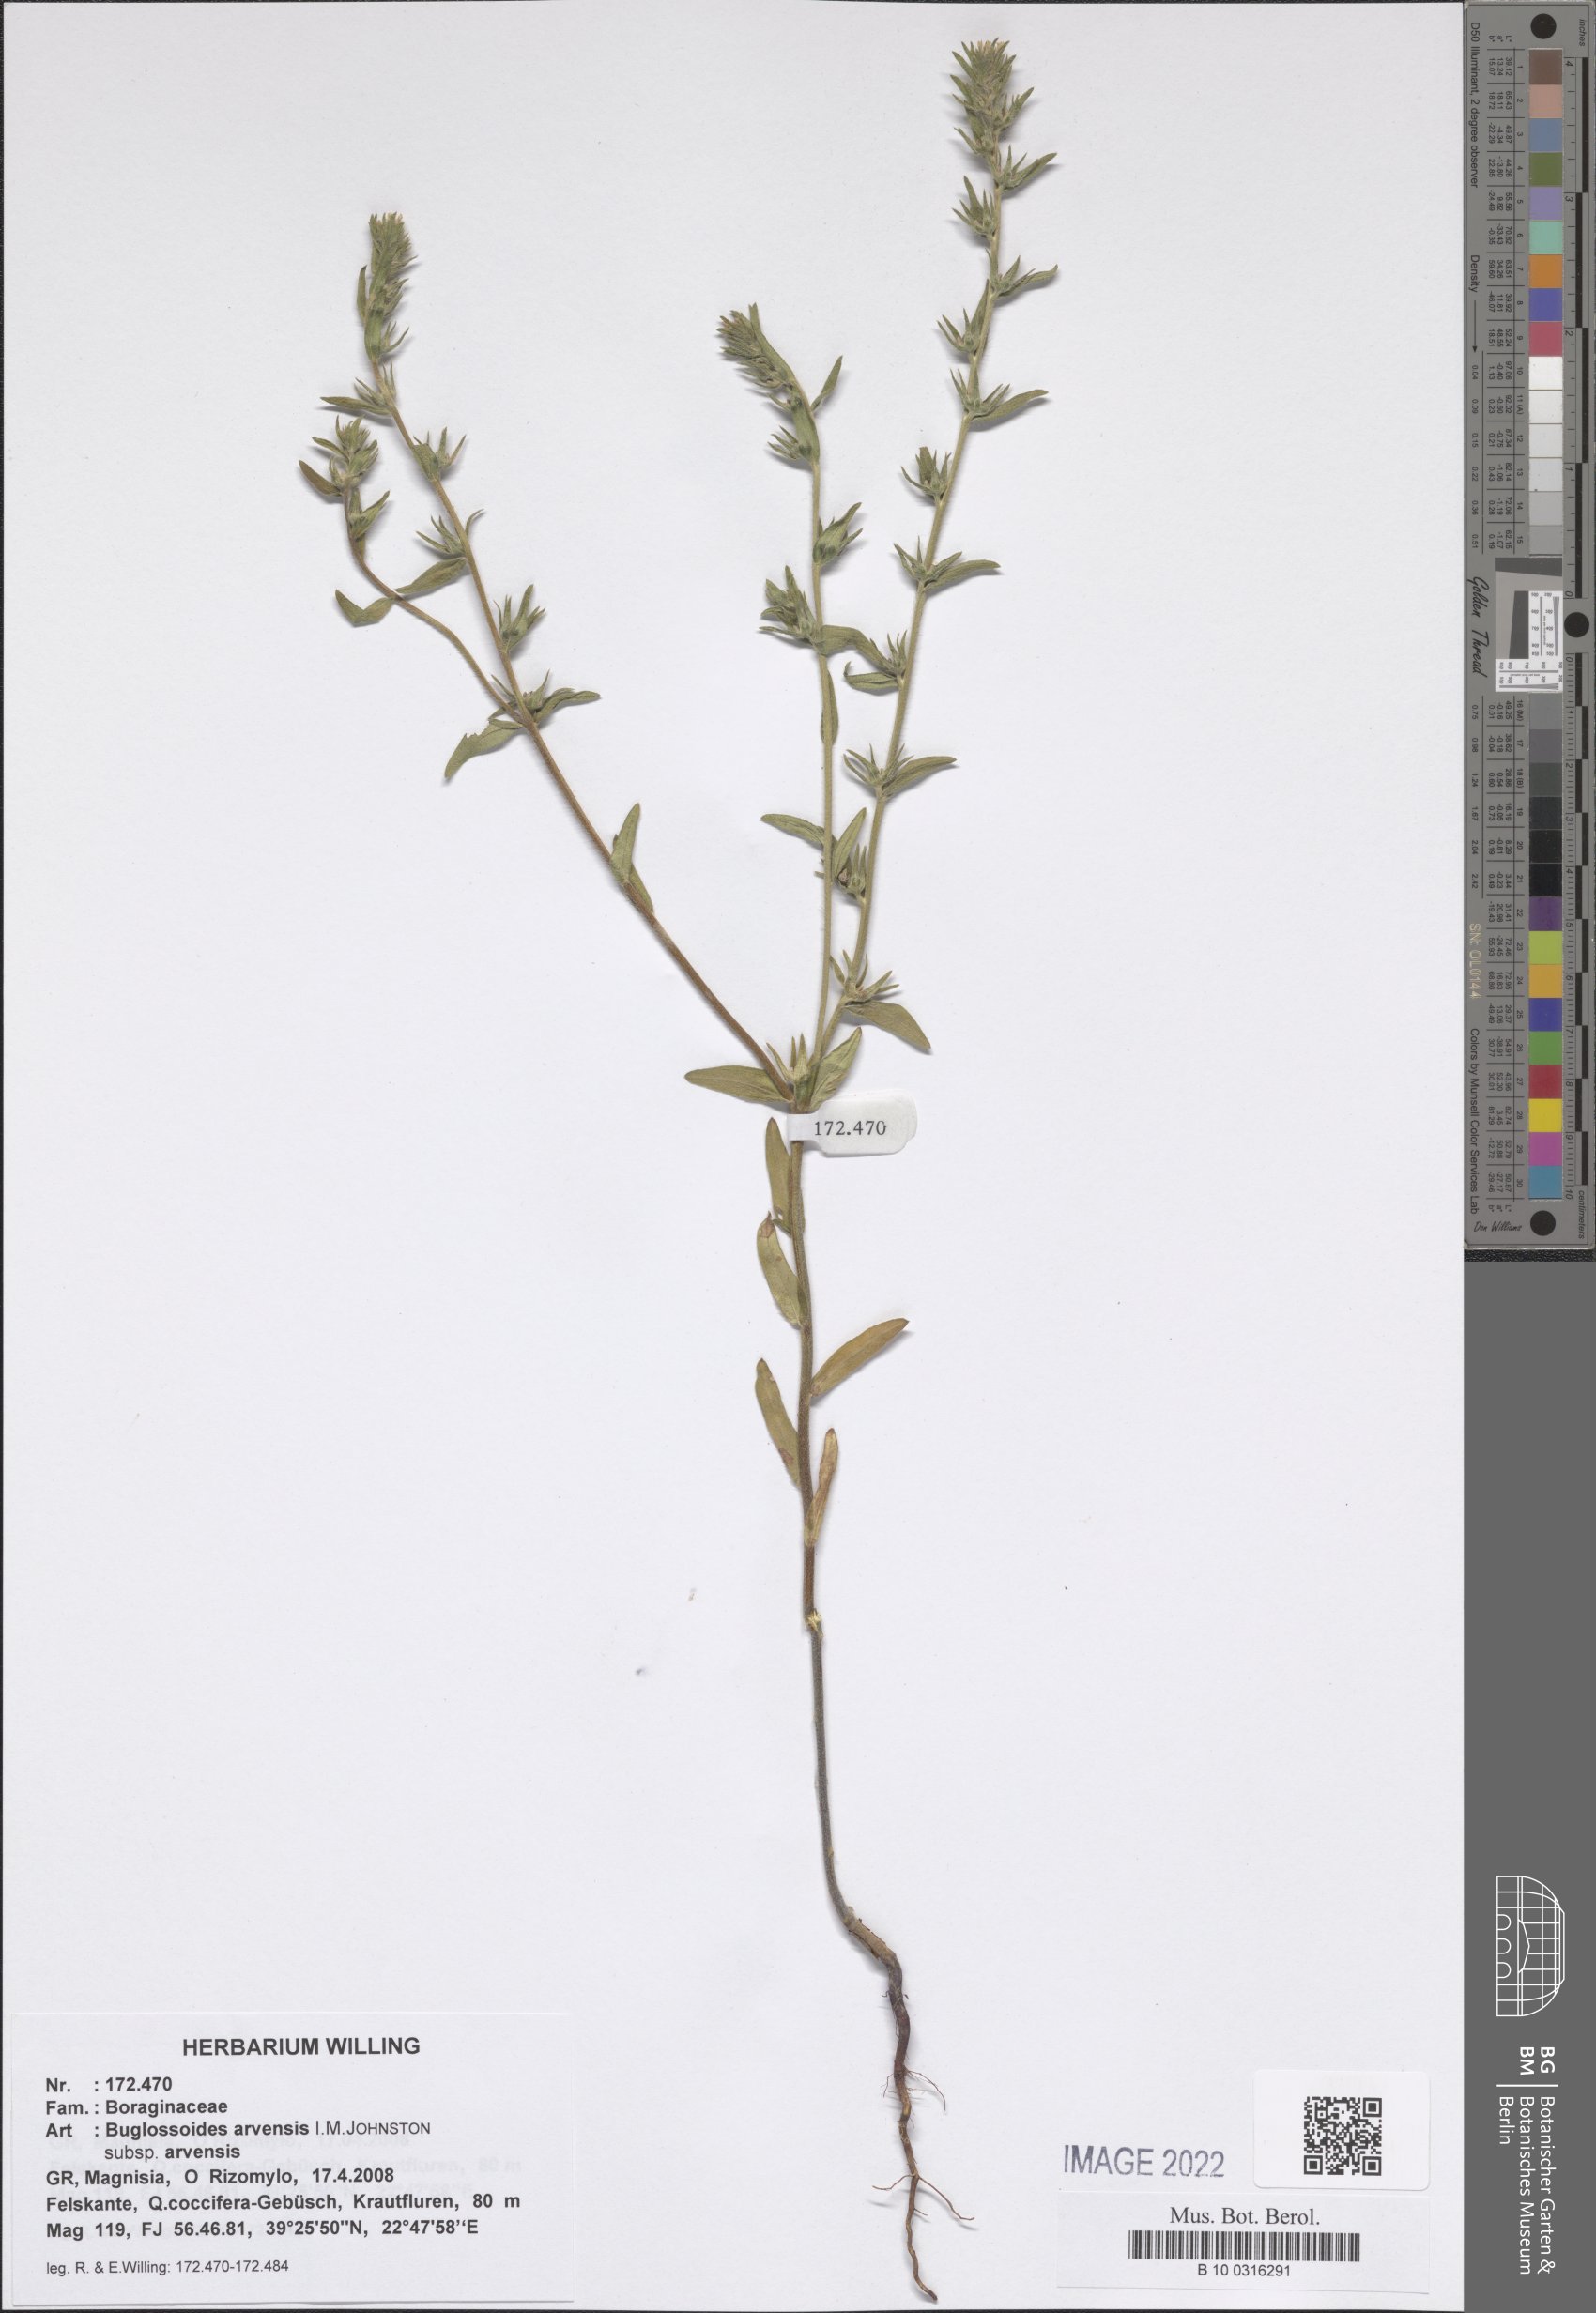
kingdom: Plantae
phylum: Tracheophyta
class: Magnoliopsida
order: Boraginales
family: Boraginaceae
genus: Buglossoides
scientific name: Buglossoides arvensis
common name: Corn gromwell
